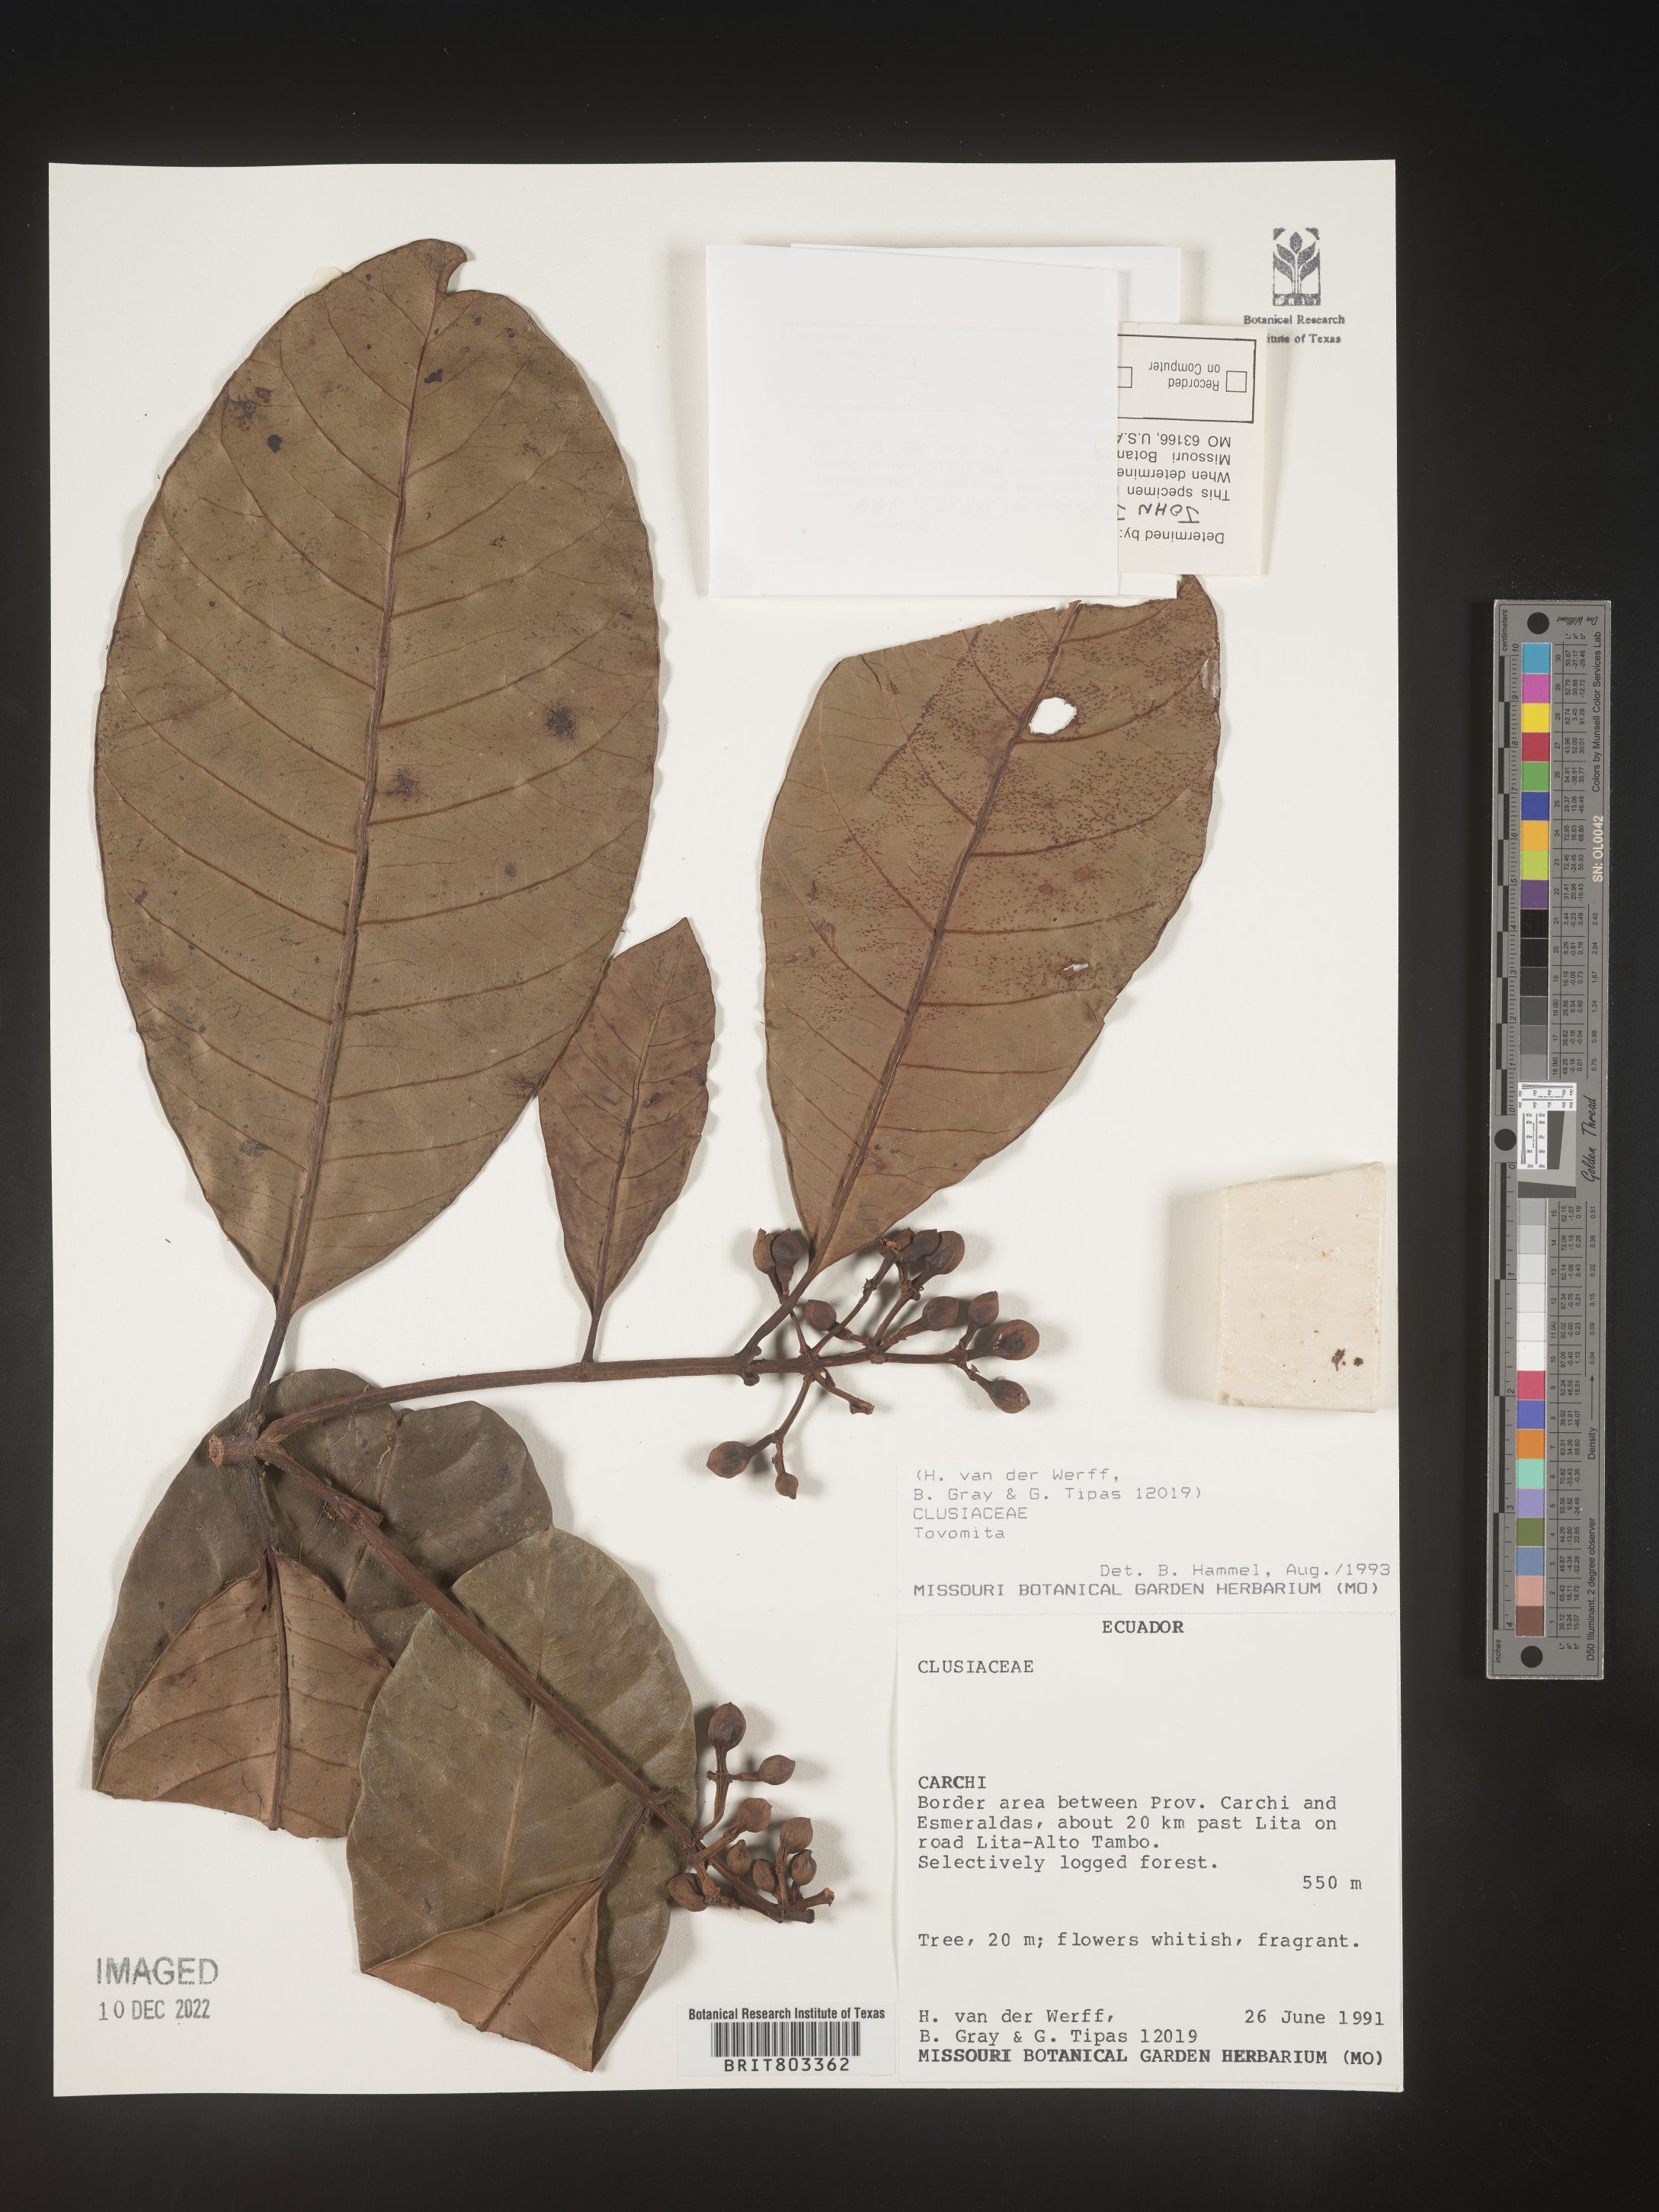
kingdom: Plantae
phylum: Tracheophyta
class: Magnoliopsida
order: Malpighiales
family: Clusiaceae
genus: Tovomita
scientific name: Tovomita
